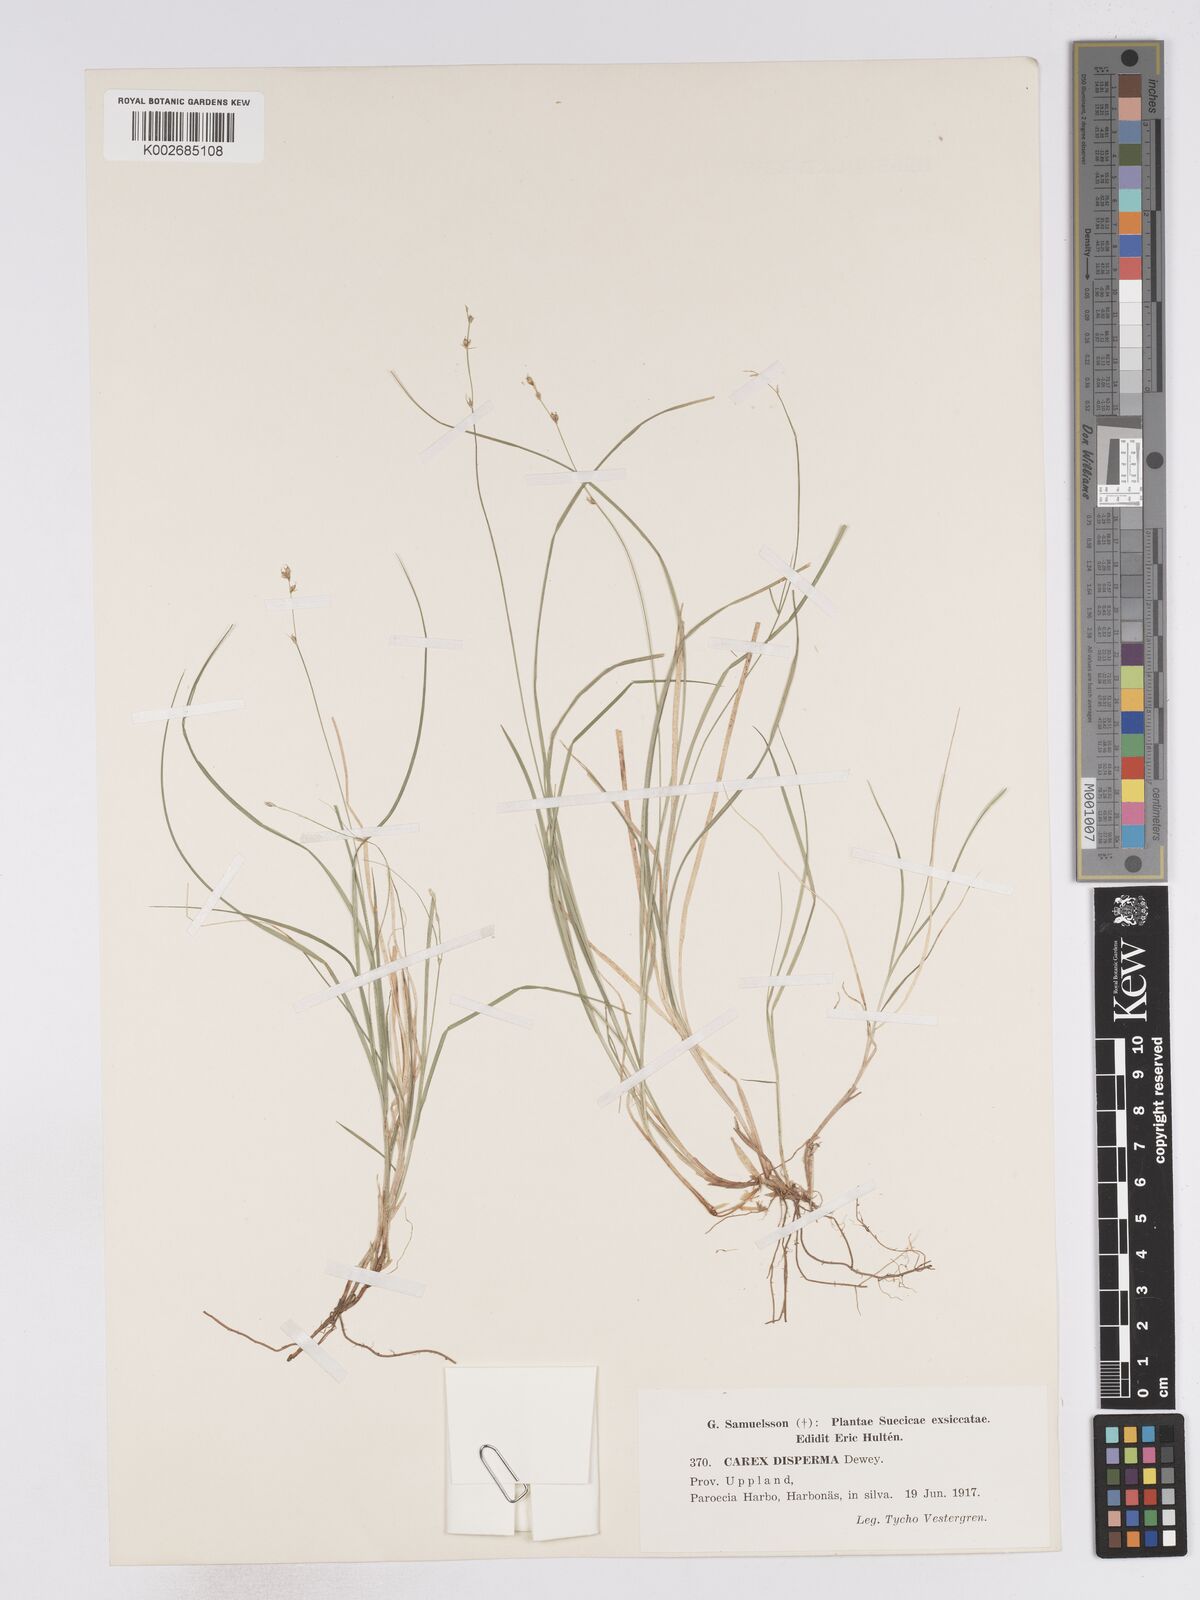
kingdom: Plantae
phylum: Tracheophyta
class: Liliopsida
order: Poales
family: Cyperaceae
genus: Carex
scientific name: Carex disperma
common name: Short-leaved sedge
